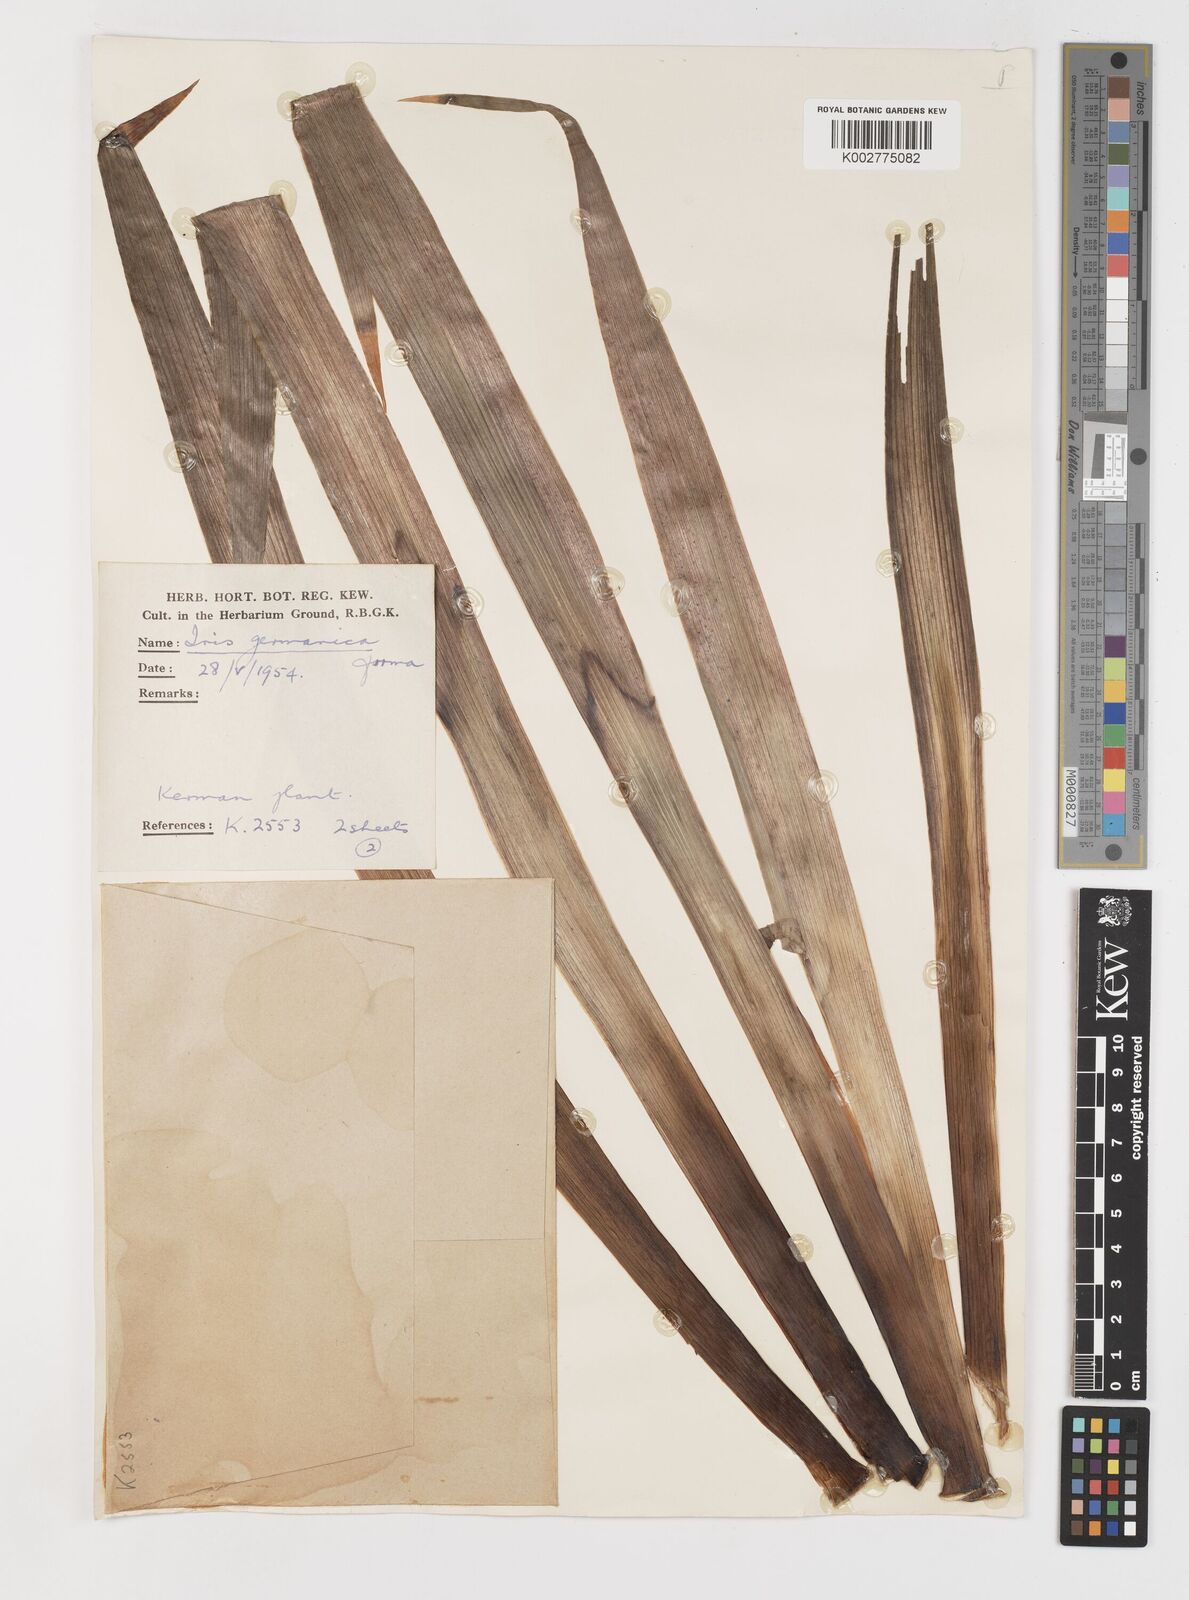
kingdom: Plantae
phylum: Tracheophyta
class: Liliopsida
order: Asparagales
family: Iridaceae
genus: Iris
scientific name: Iris germanica
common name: German iris
